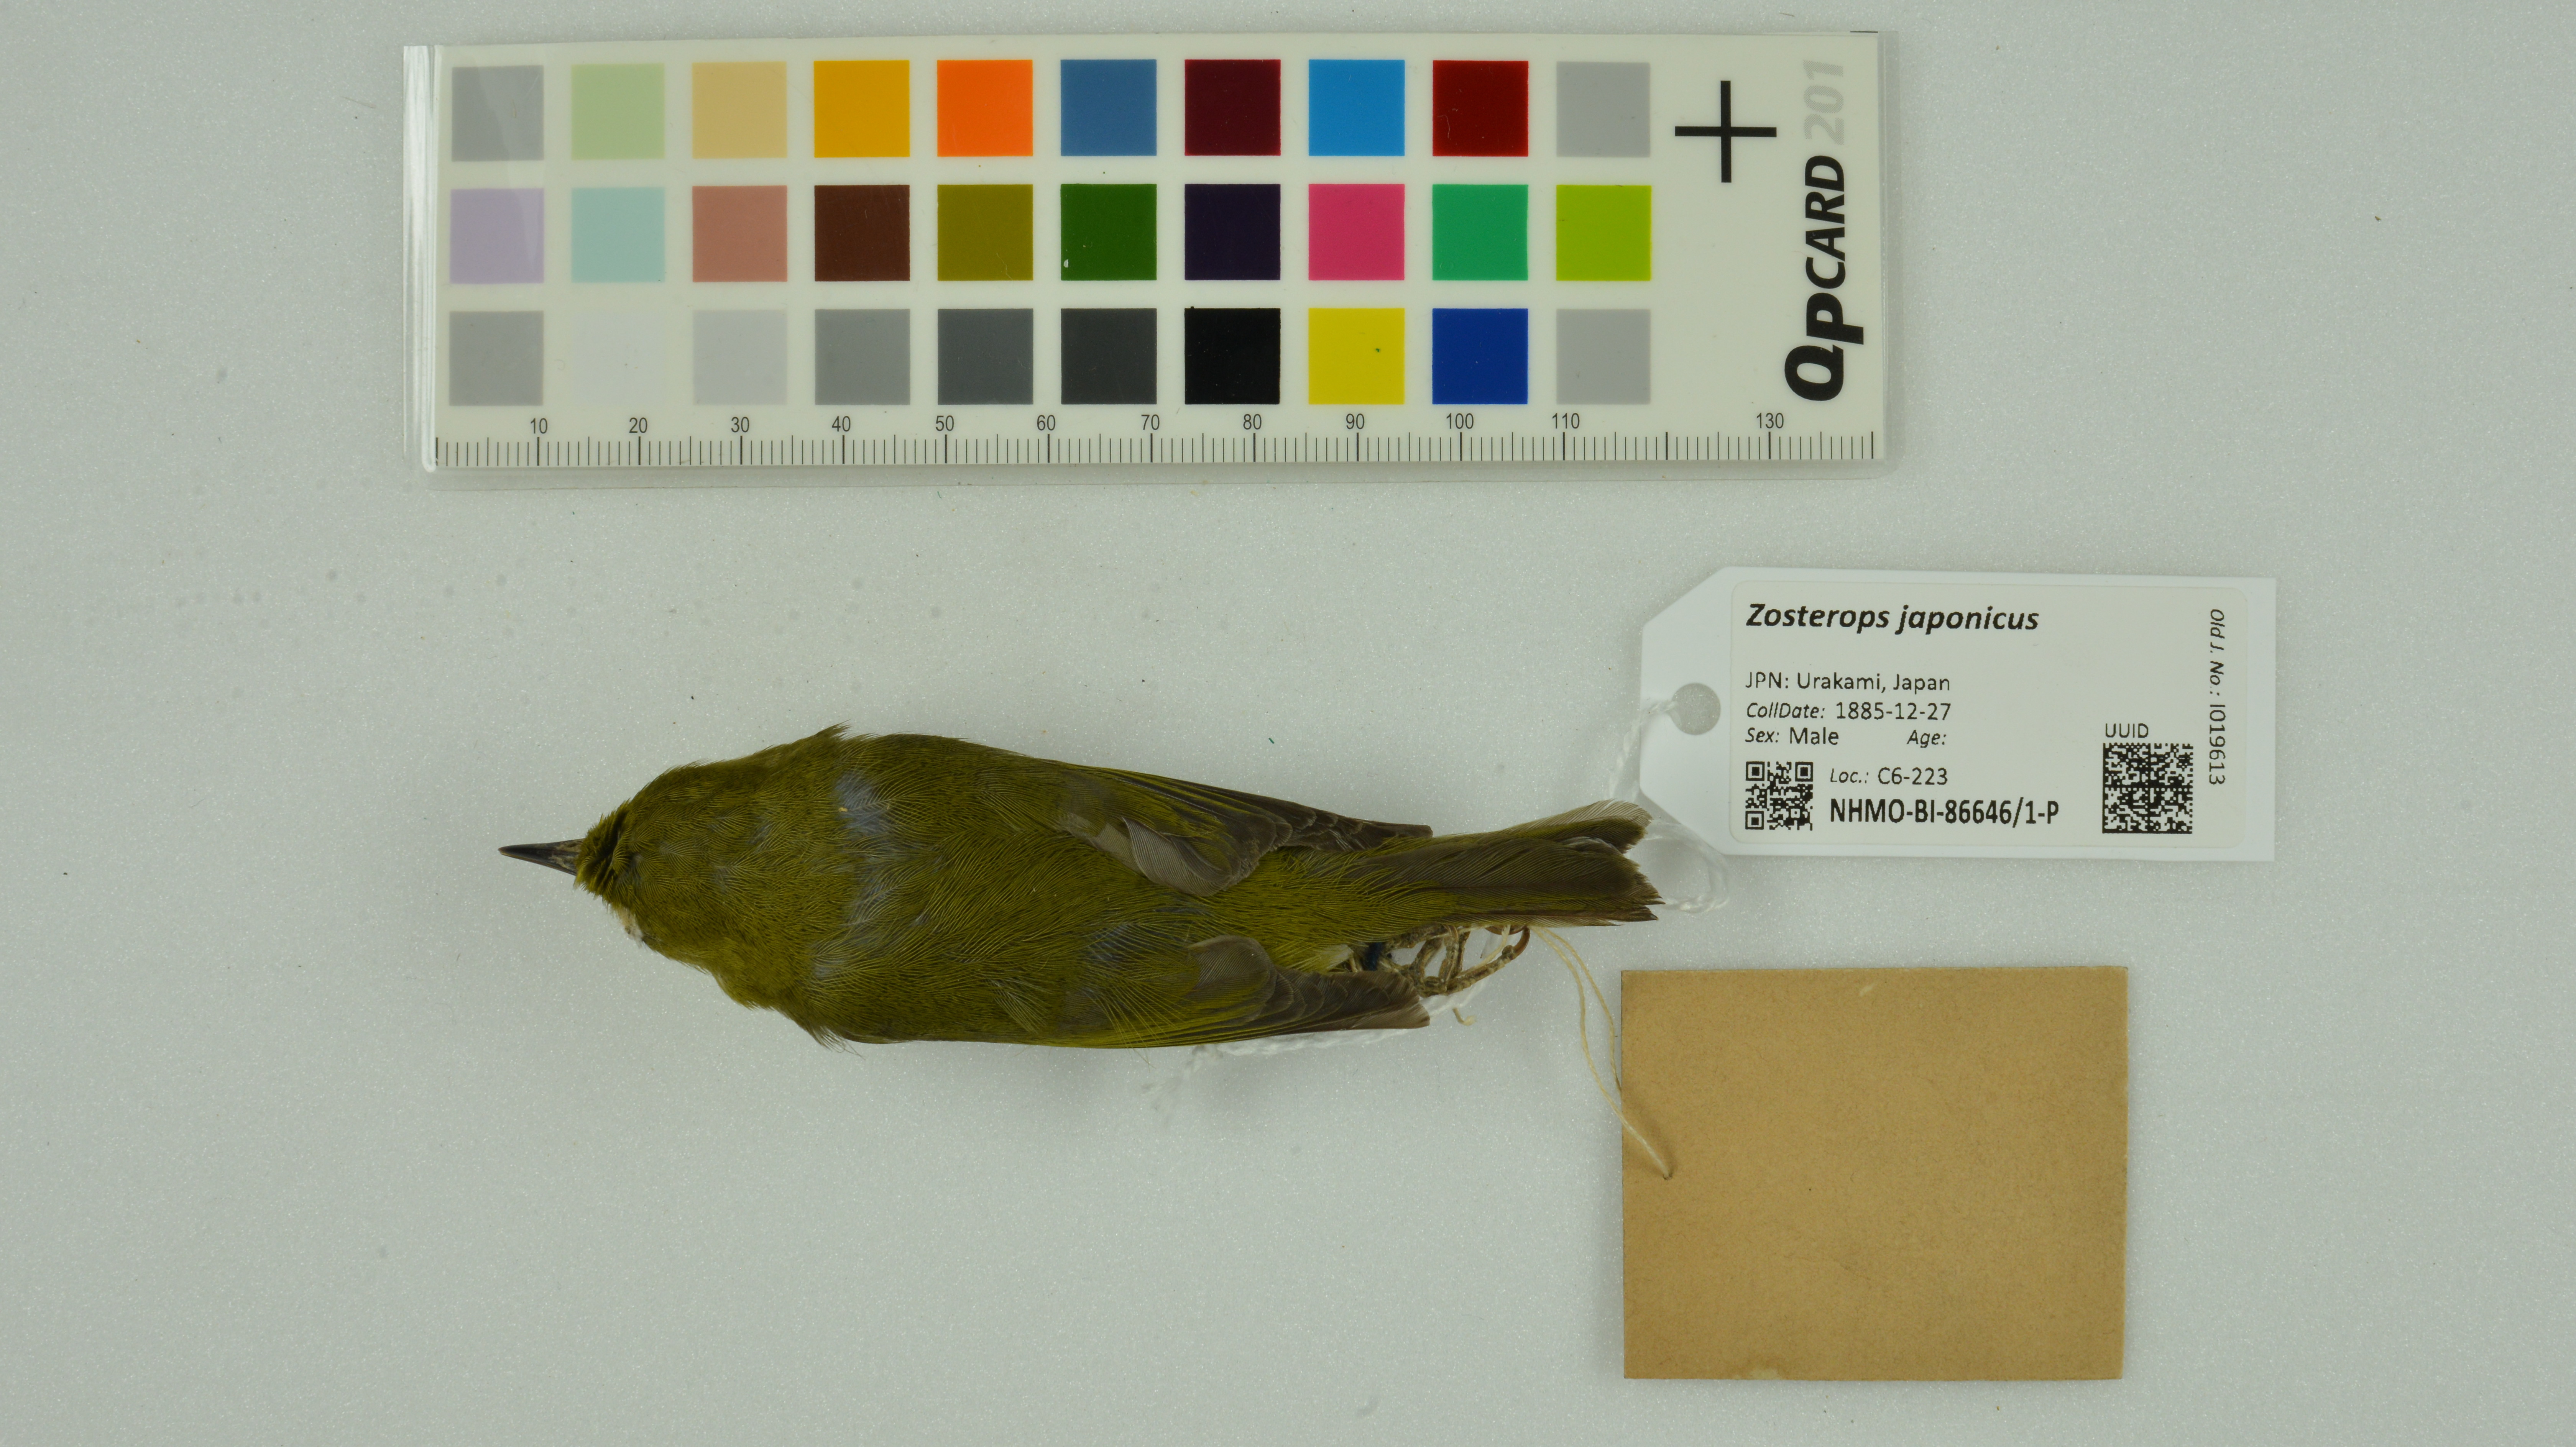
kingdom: Animalia
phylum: Chordata
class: Aves
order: Passeriformes
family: Zosteropidae
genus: Zosterops
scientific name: Zosterops japonicus
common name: Japanese white-eye
